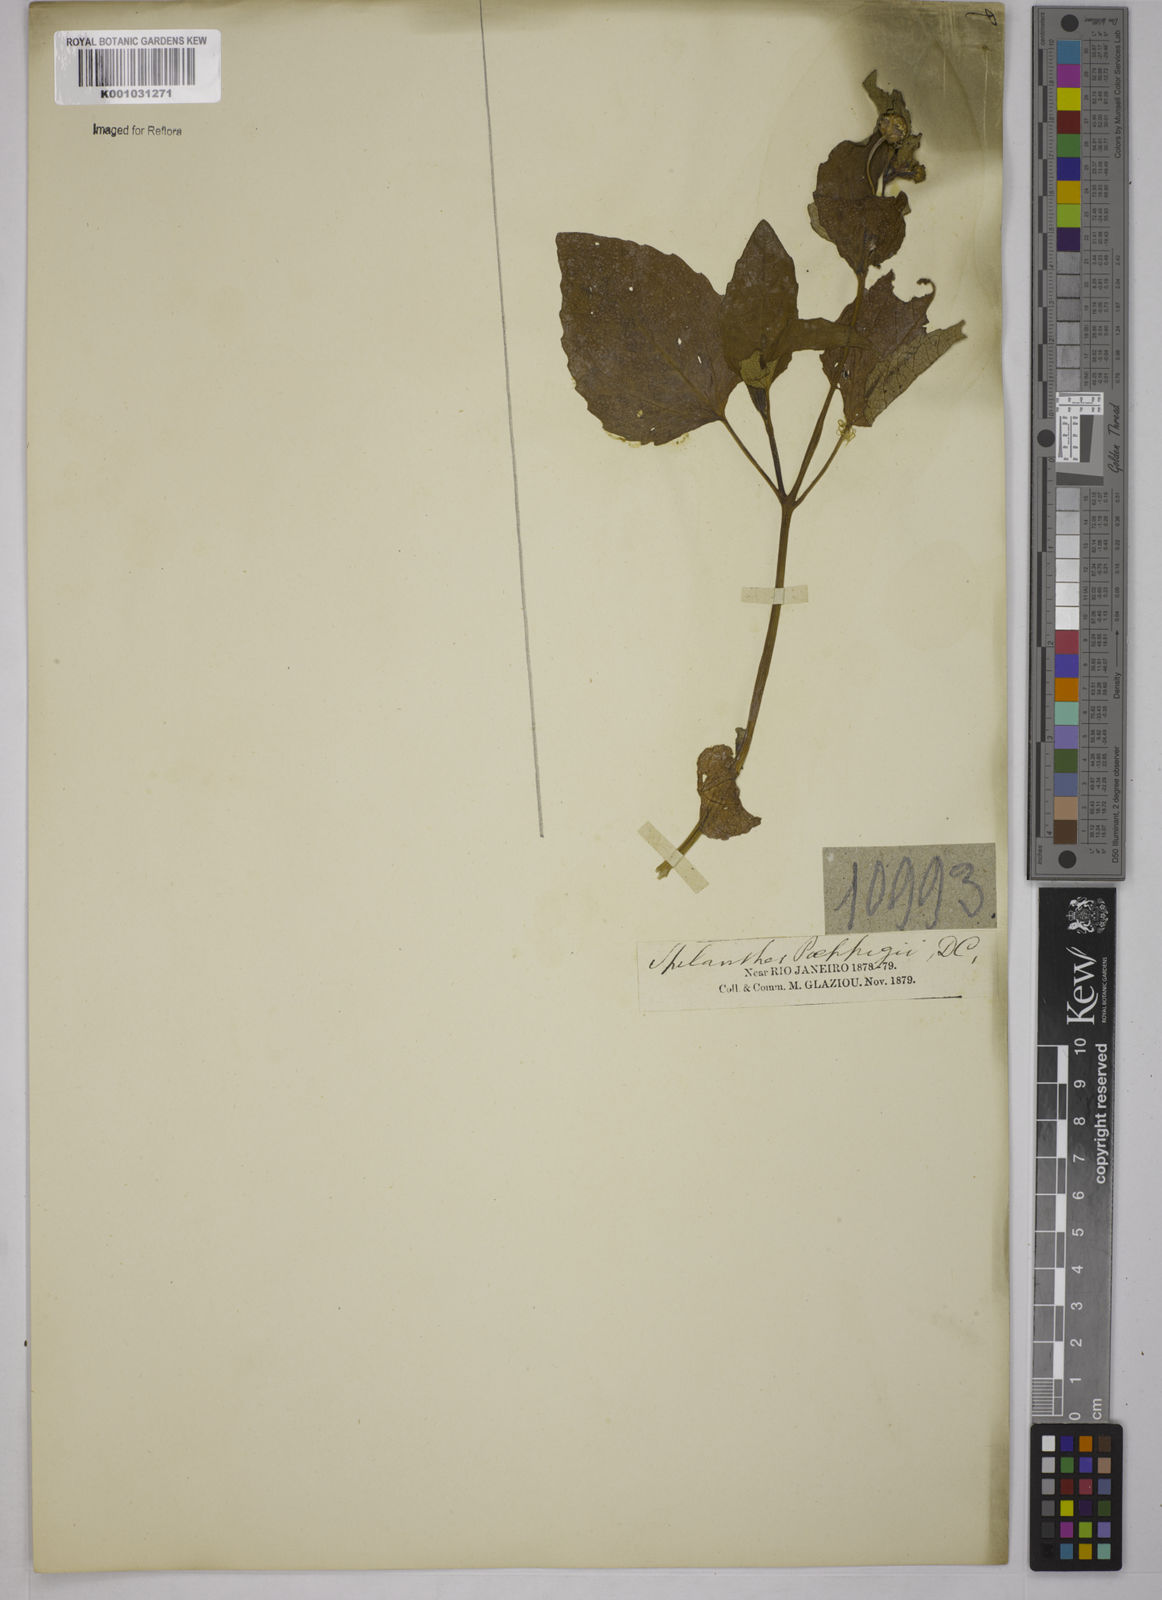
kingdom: Plantae
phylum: Tracheophyta
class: Magnoliopsida
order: Asterales
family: Asteraceae
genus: Acmella
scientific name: Acmella ciliata
